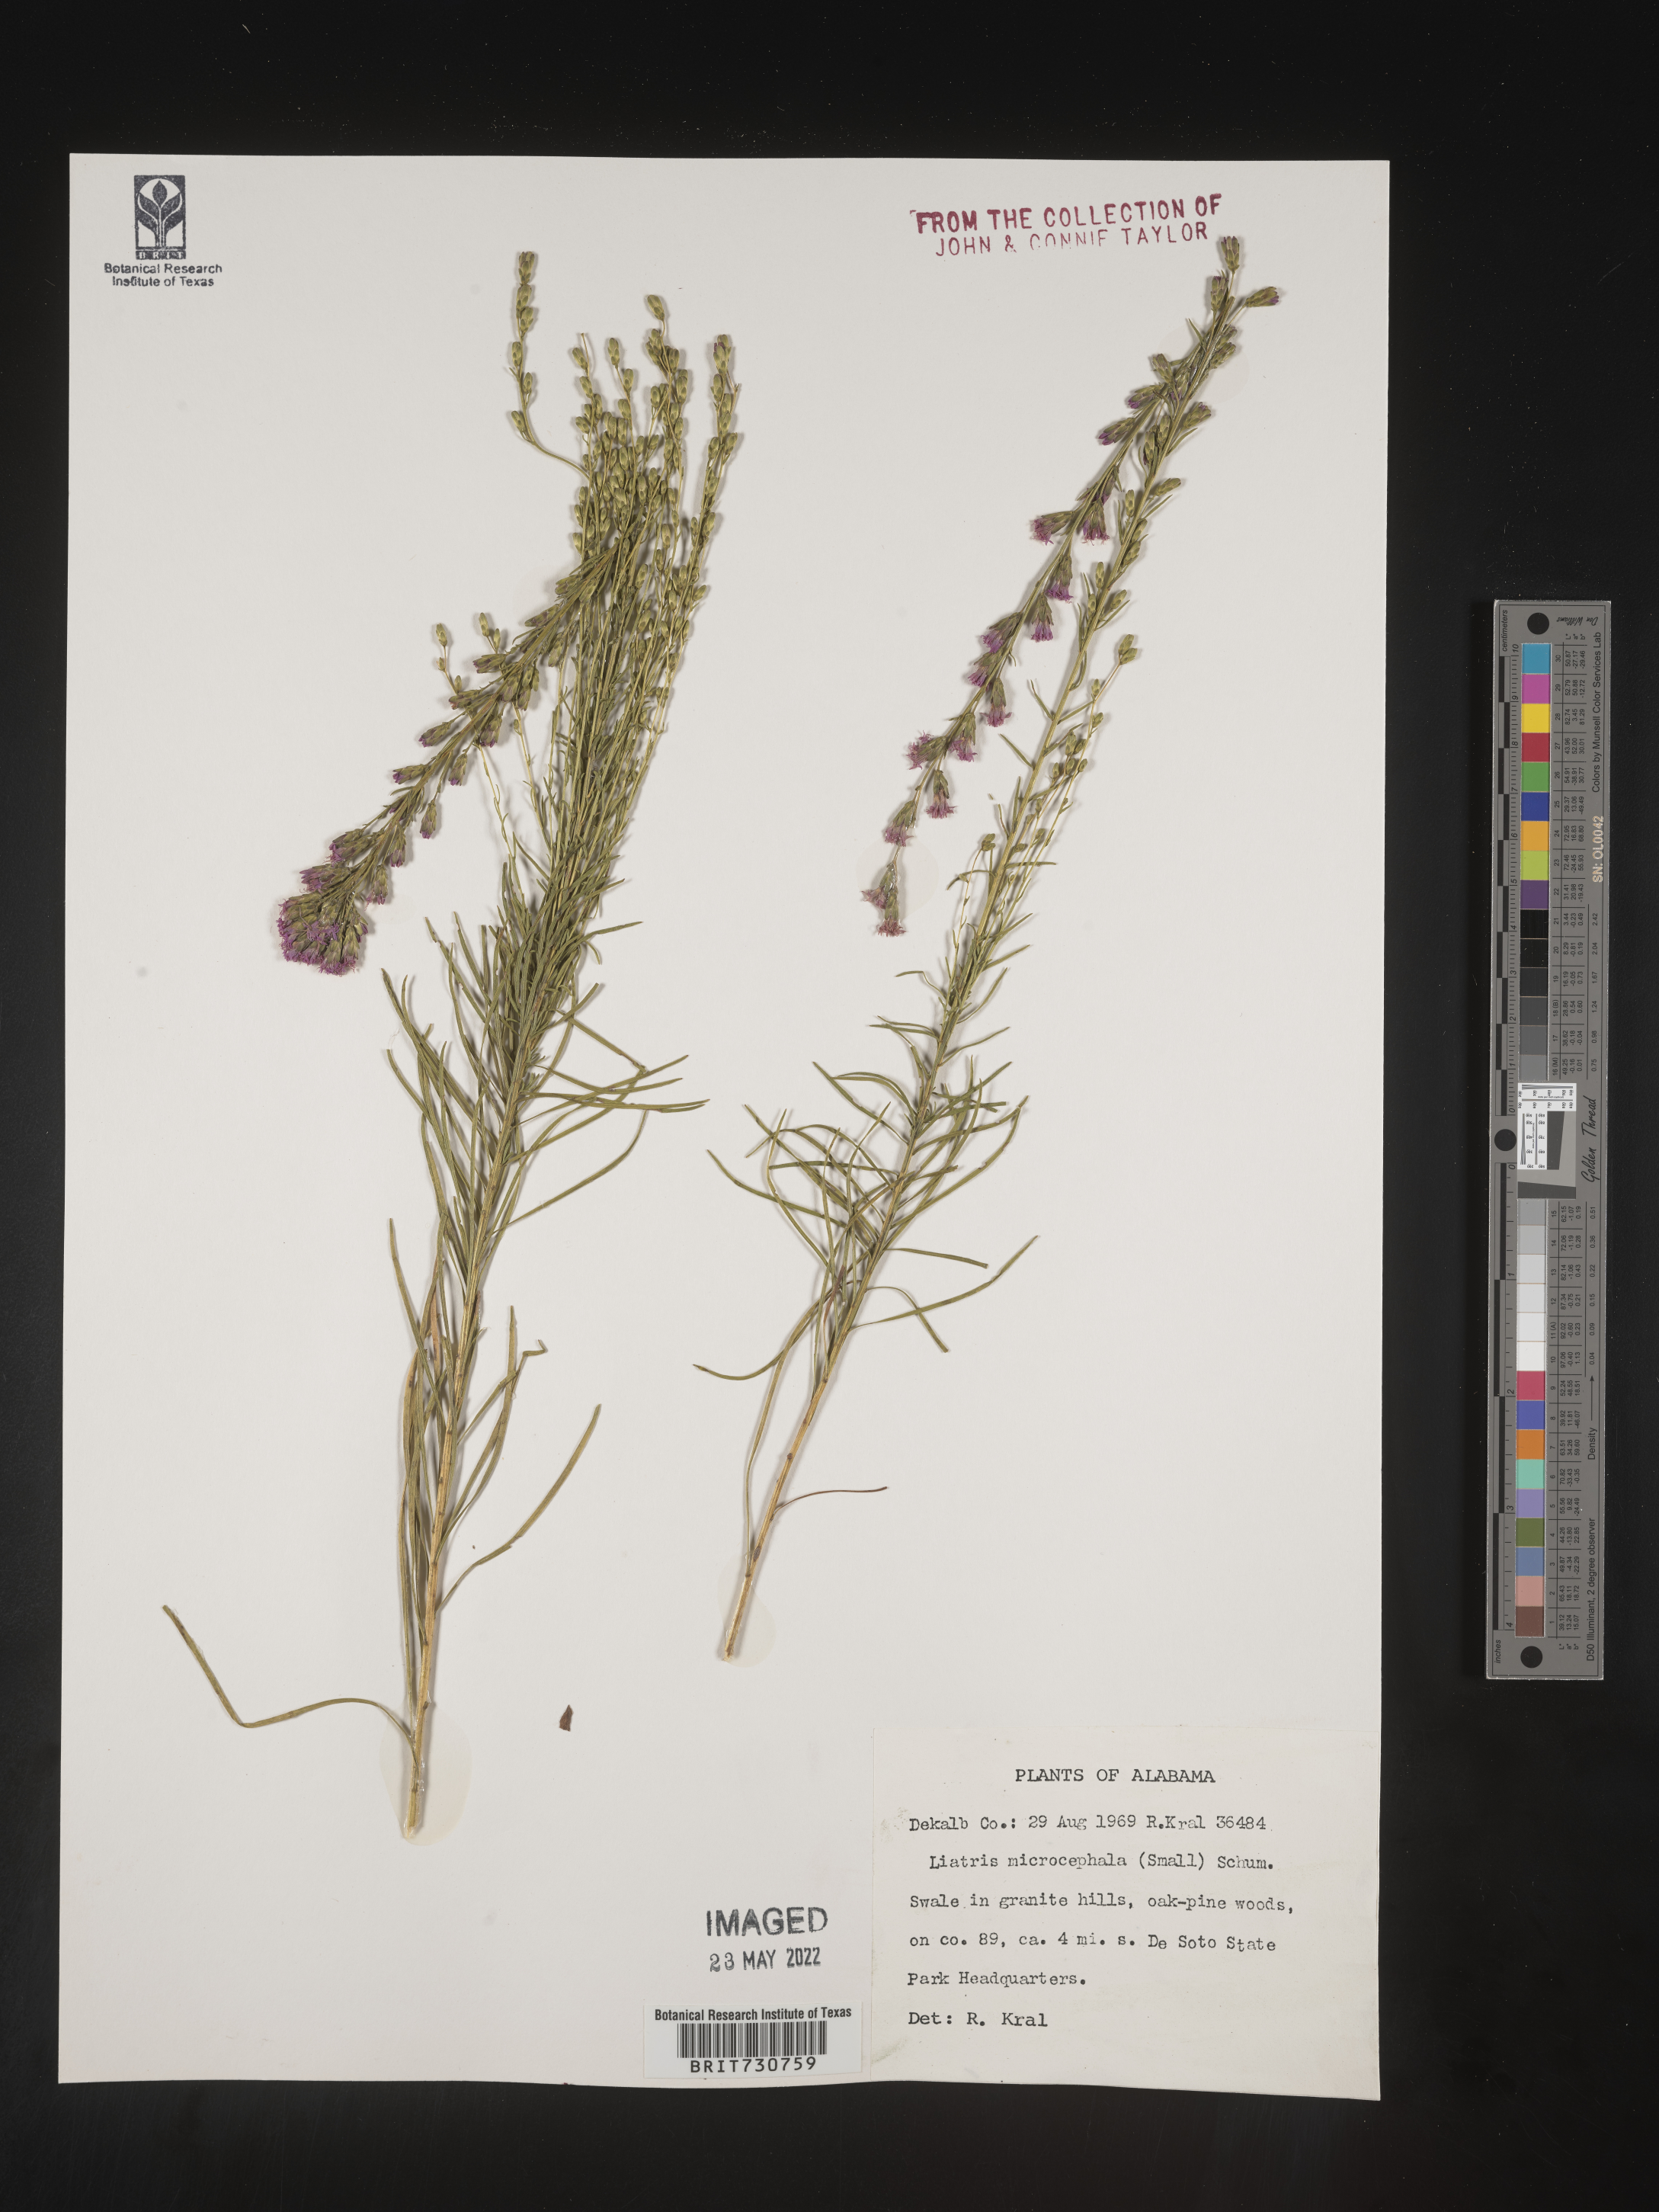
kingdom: Plantae
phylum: Tracheophyta
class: Magnoliopsida
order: Asterales
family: Asteraceae
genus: Liatris
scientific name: Liatris microcephala
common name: Small-head gayfeather
